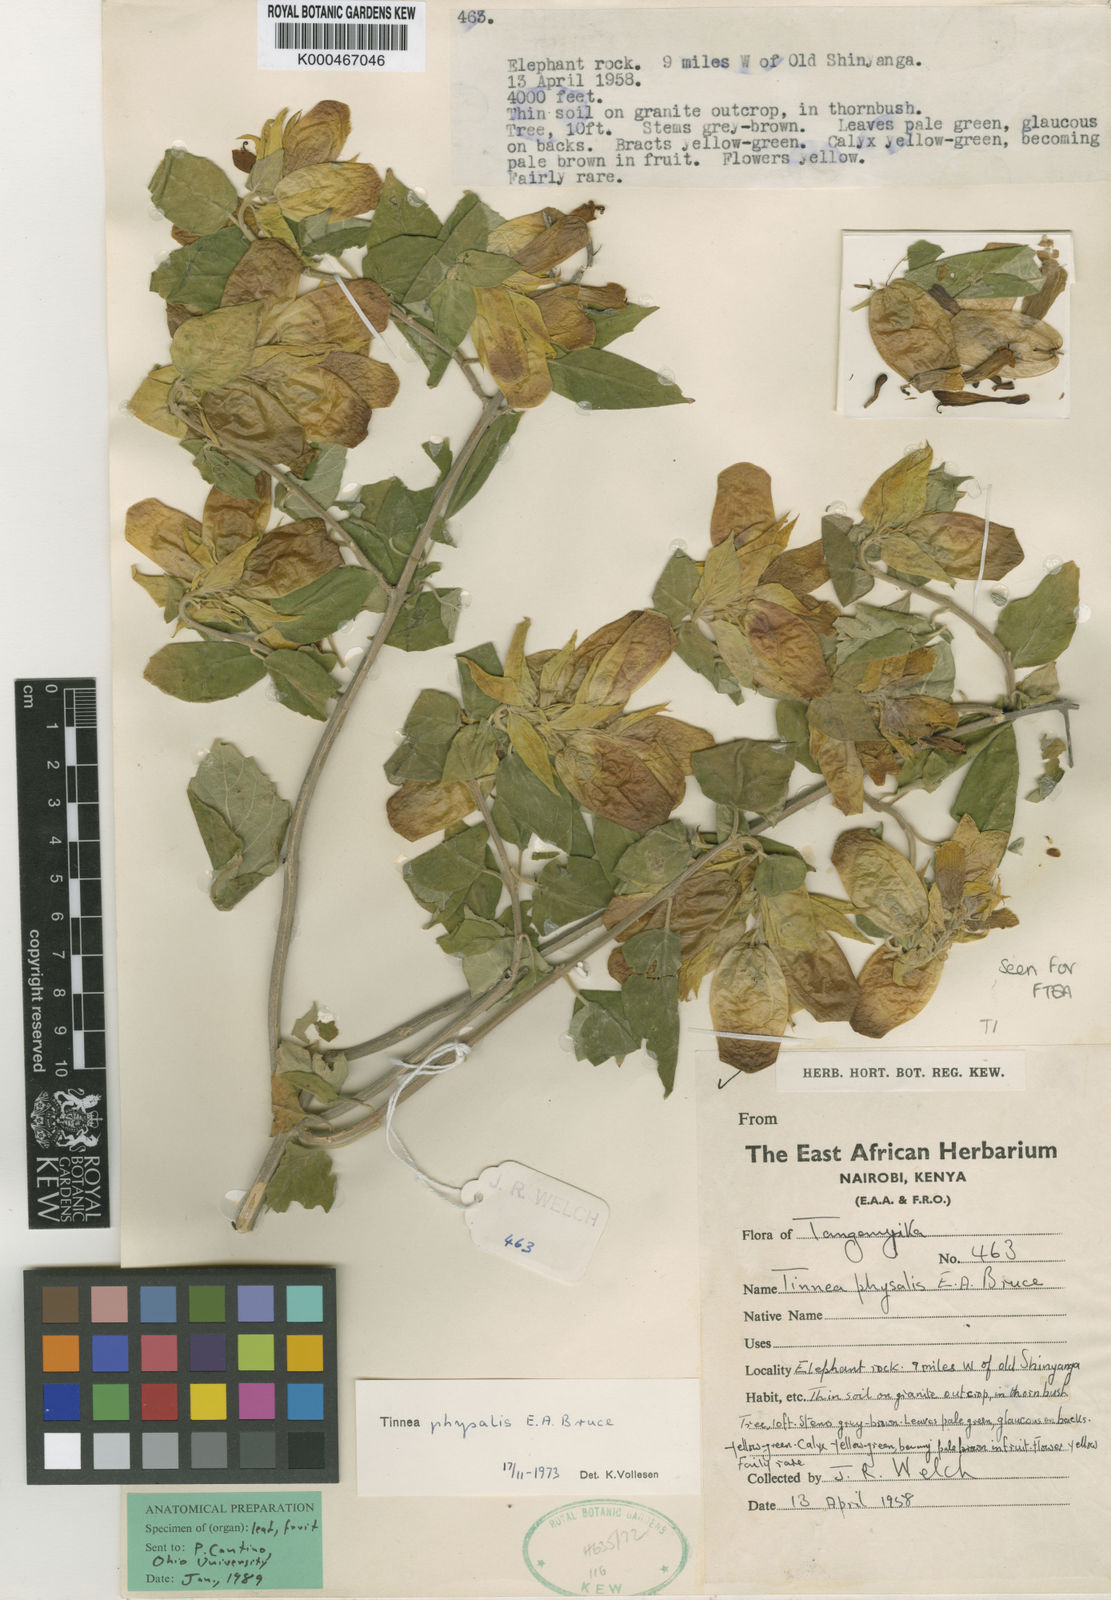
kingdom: Plantae
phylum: Tracheophyta
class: Magnoliopsida
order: Lamiales
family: Lamiaceae
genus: Tinnea
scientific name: Tinnea physalis
